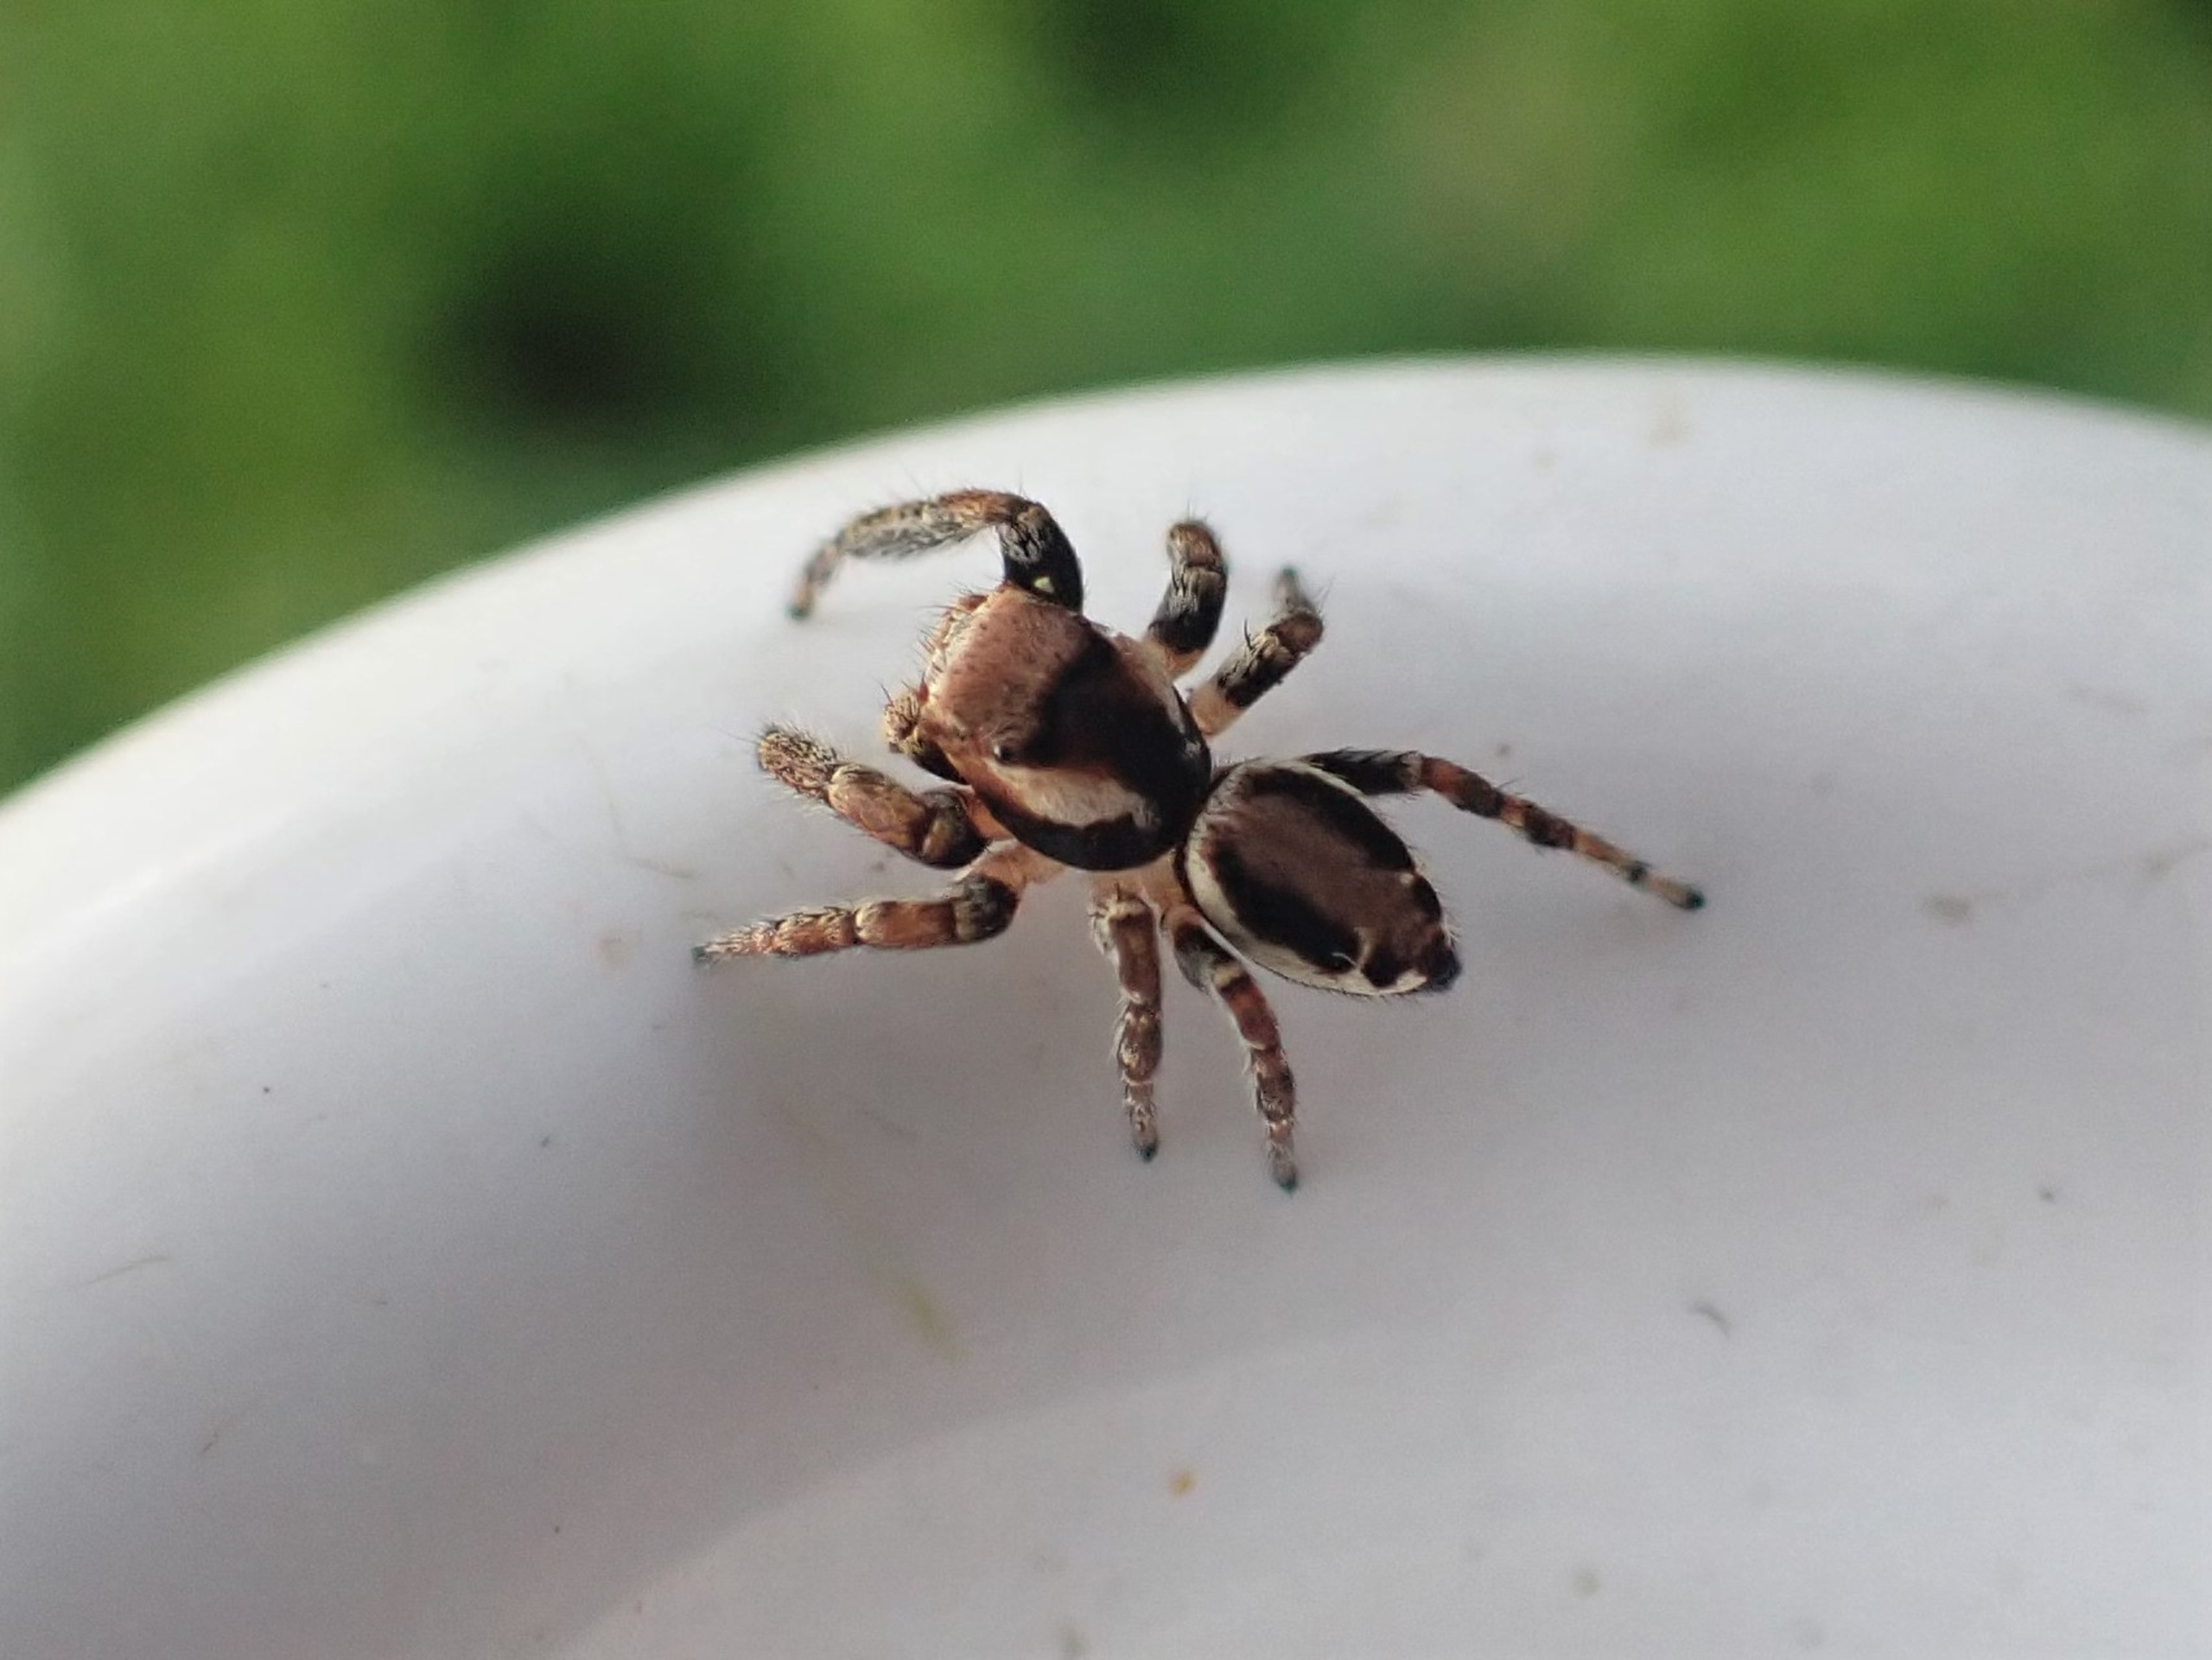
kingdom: Animalia
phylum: Arthropoda
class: Arachnida
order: Araneae
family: Salticidae
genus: Evarcha
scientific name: Evarcha falcata
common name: Broget springedderkop
